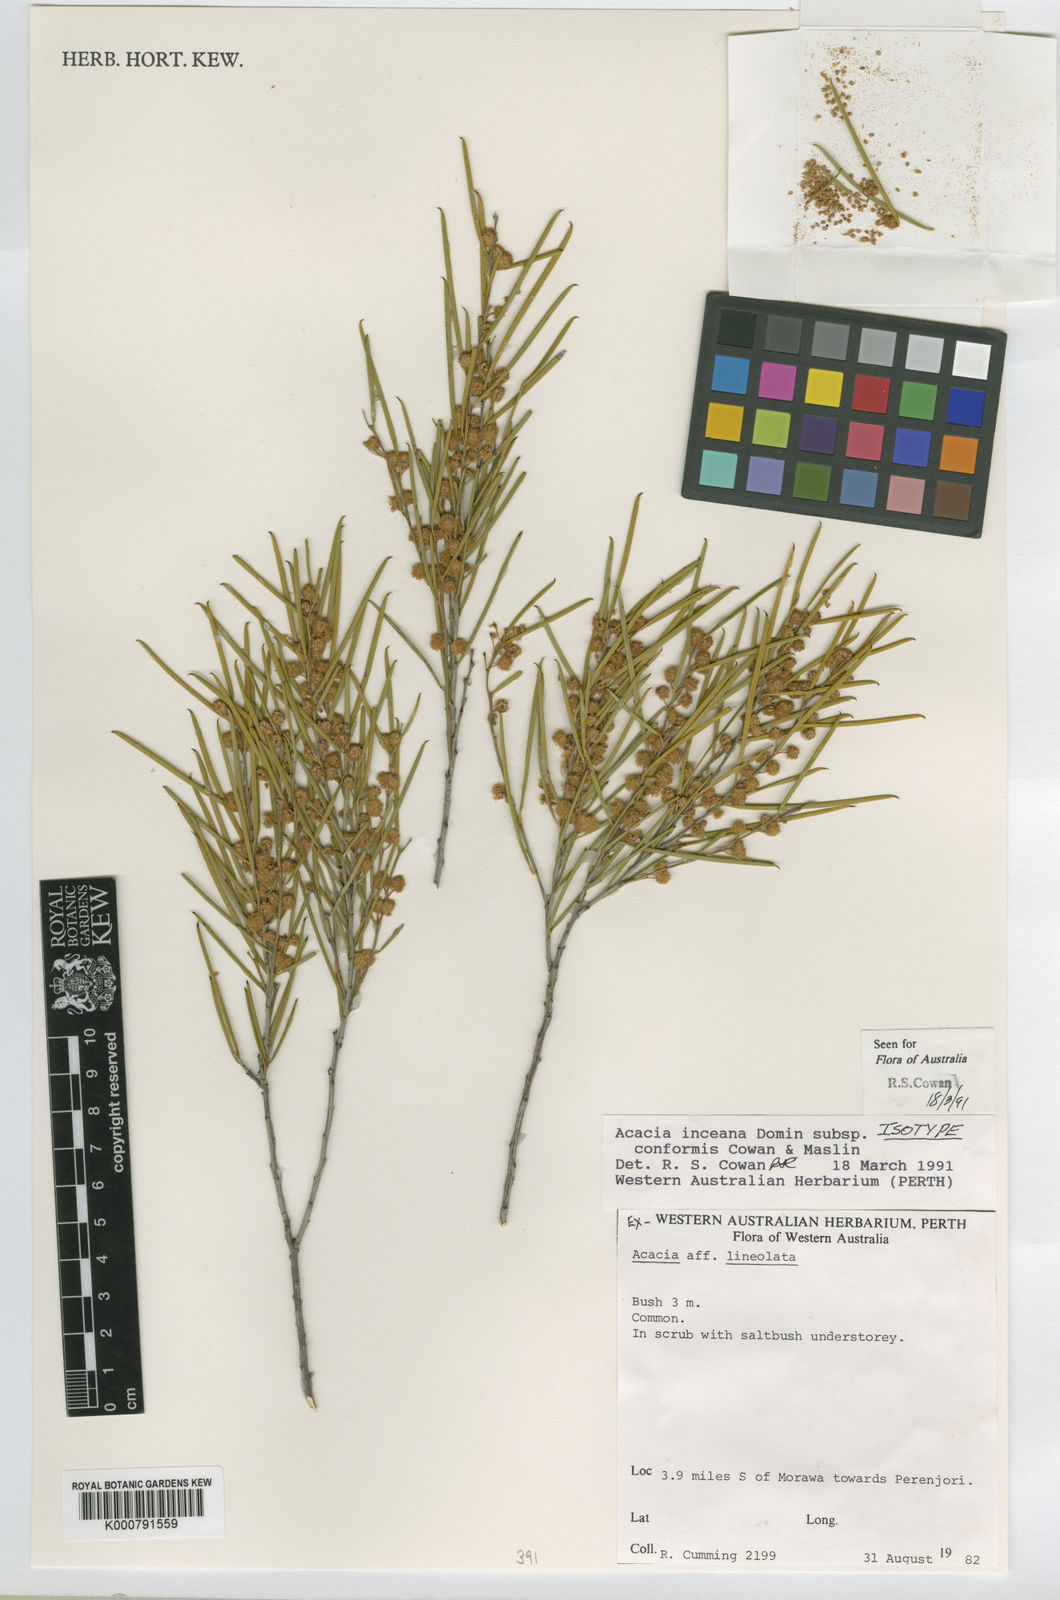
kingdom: Plantae
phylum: Tracheophyta
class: Magnoliopsida
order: Fabales
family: Fabaceae
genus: Acacia
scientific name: Acacia inceana
